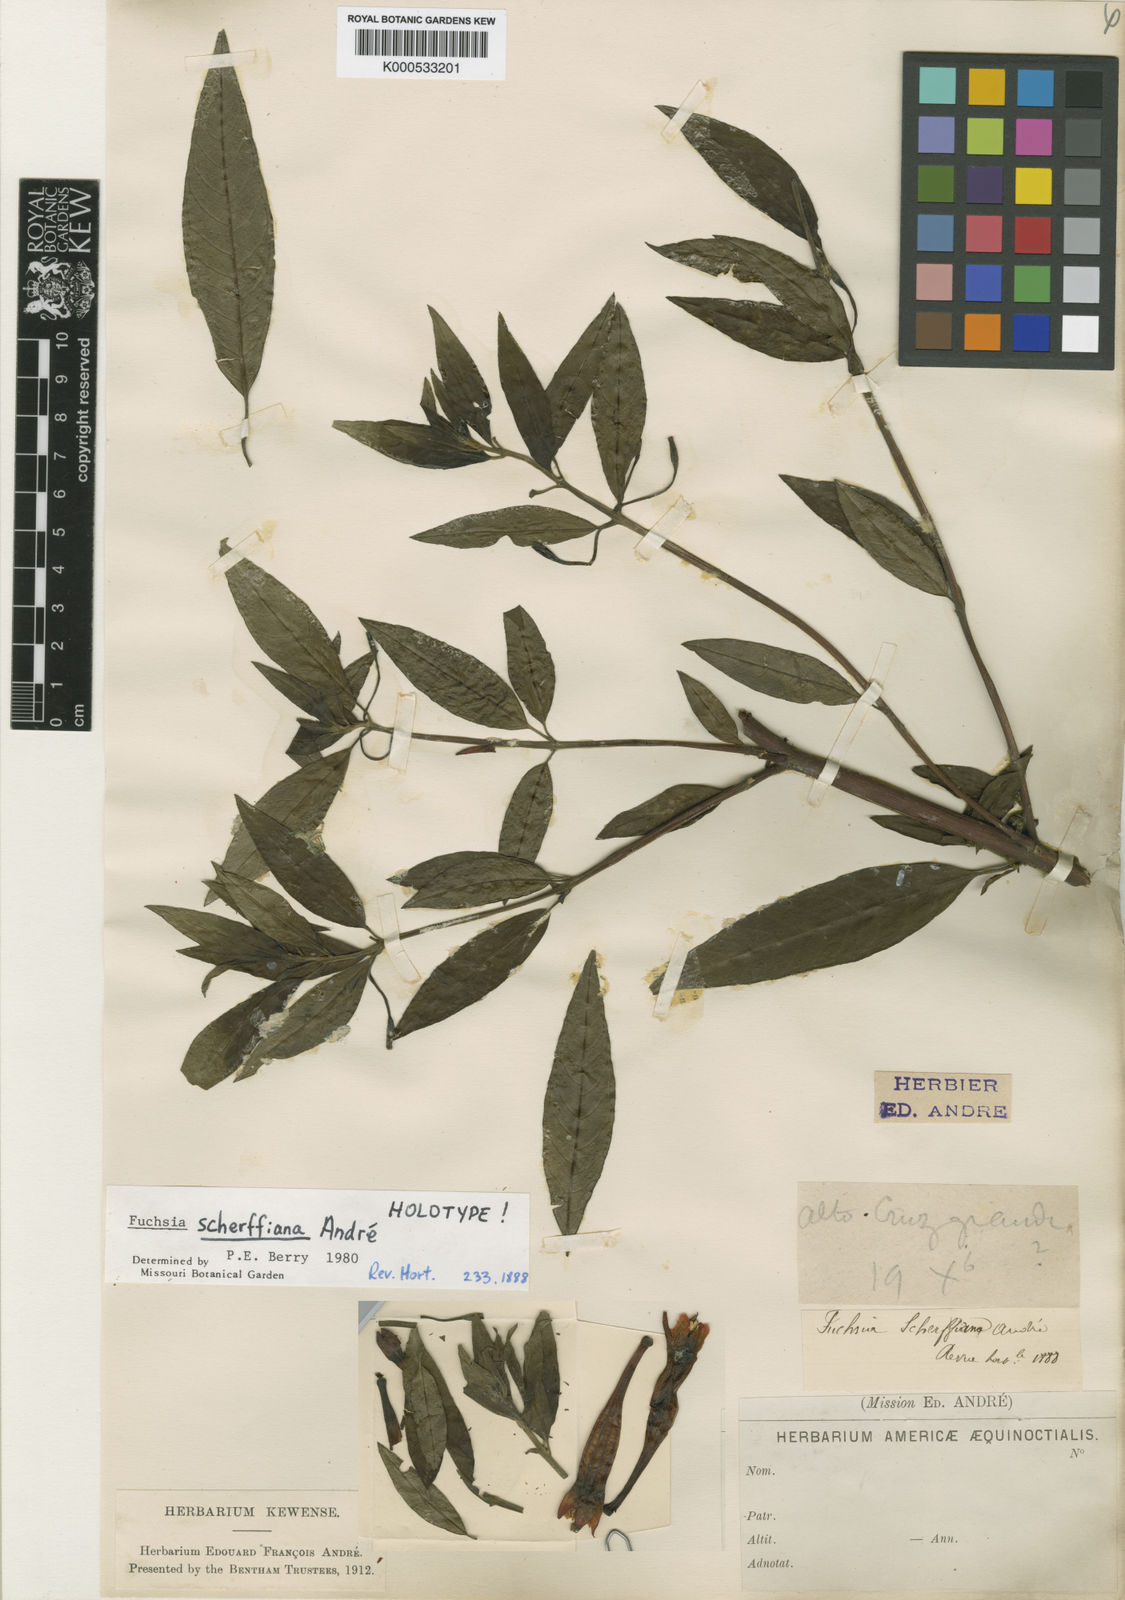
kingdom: Plantae
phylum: Tracheophyta
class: Magnoliopsida
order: Myrtales
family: Onagraceae
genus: Fuchsia
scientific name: Fuchsia scherffiana
